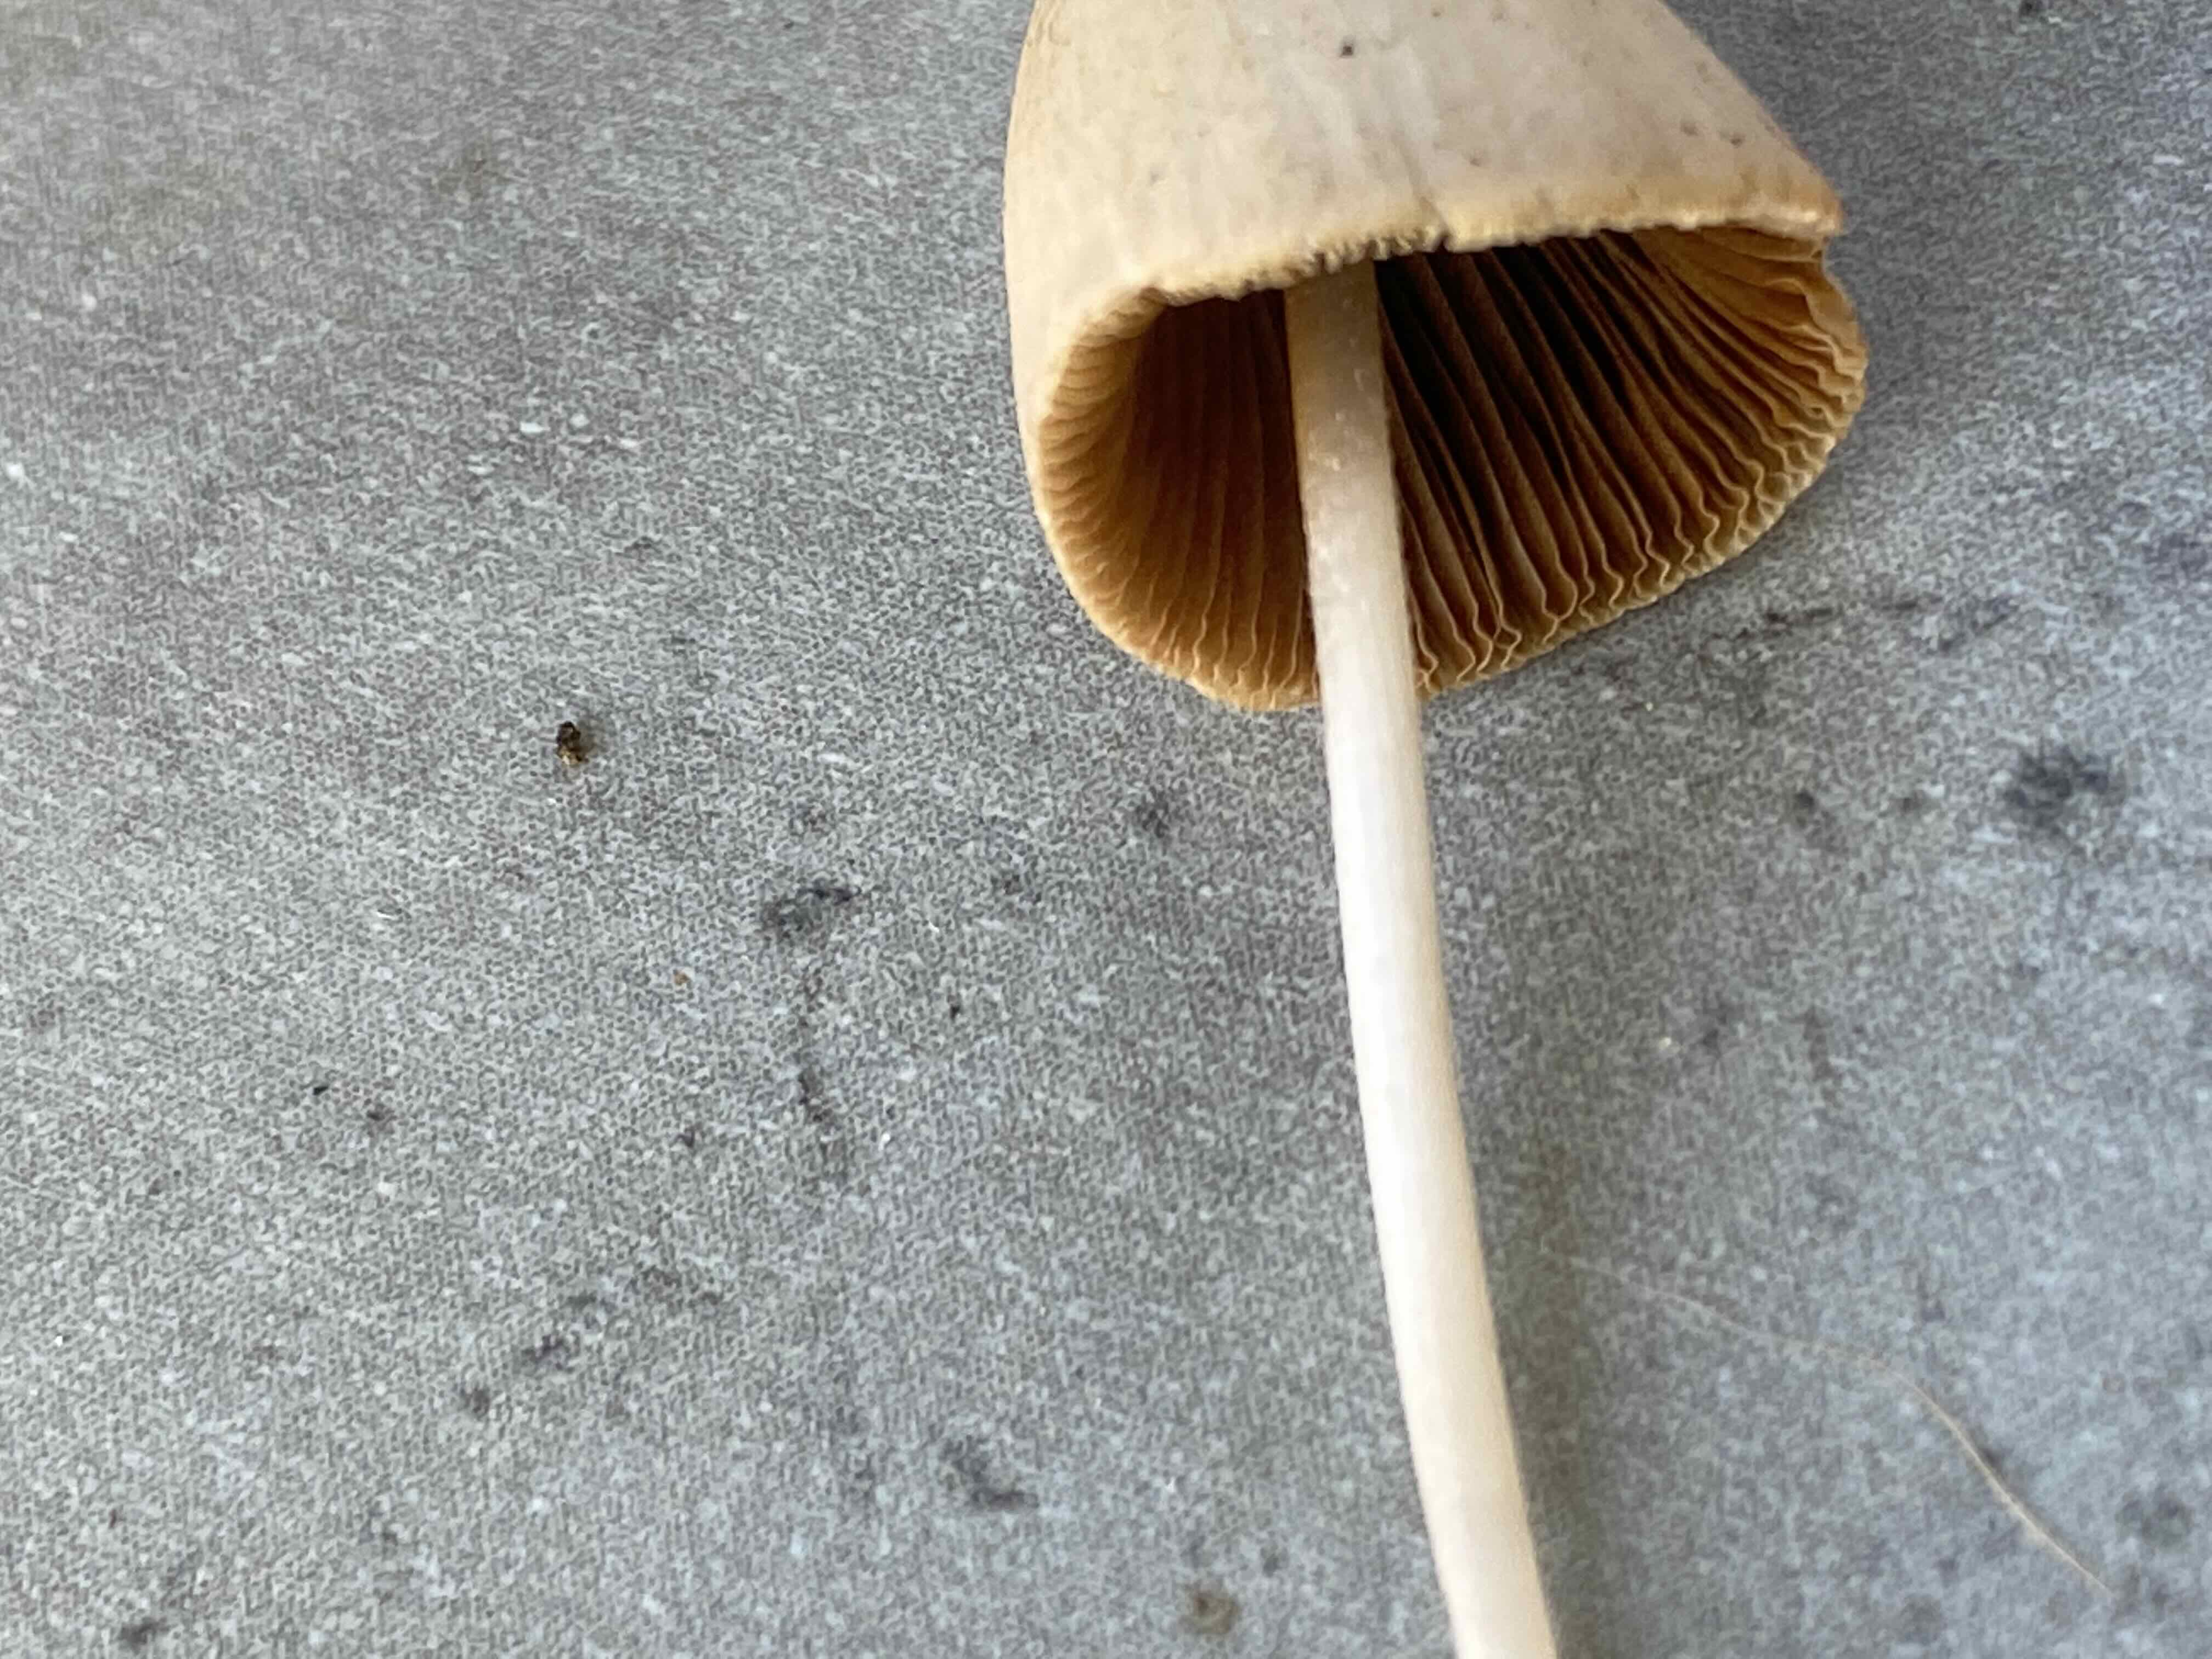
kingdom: Fungi
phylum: Basidiomycota
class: Agaricomycetes
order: Agaricales
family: Bolbitiaceae
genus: Conocybe
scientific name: Conocybe
